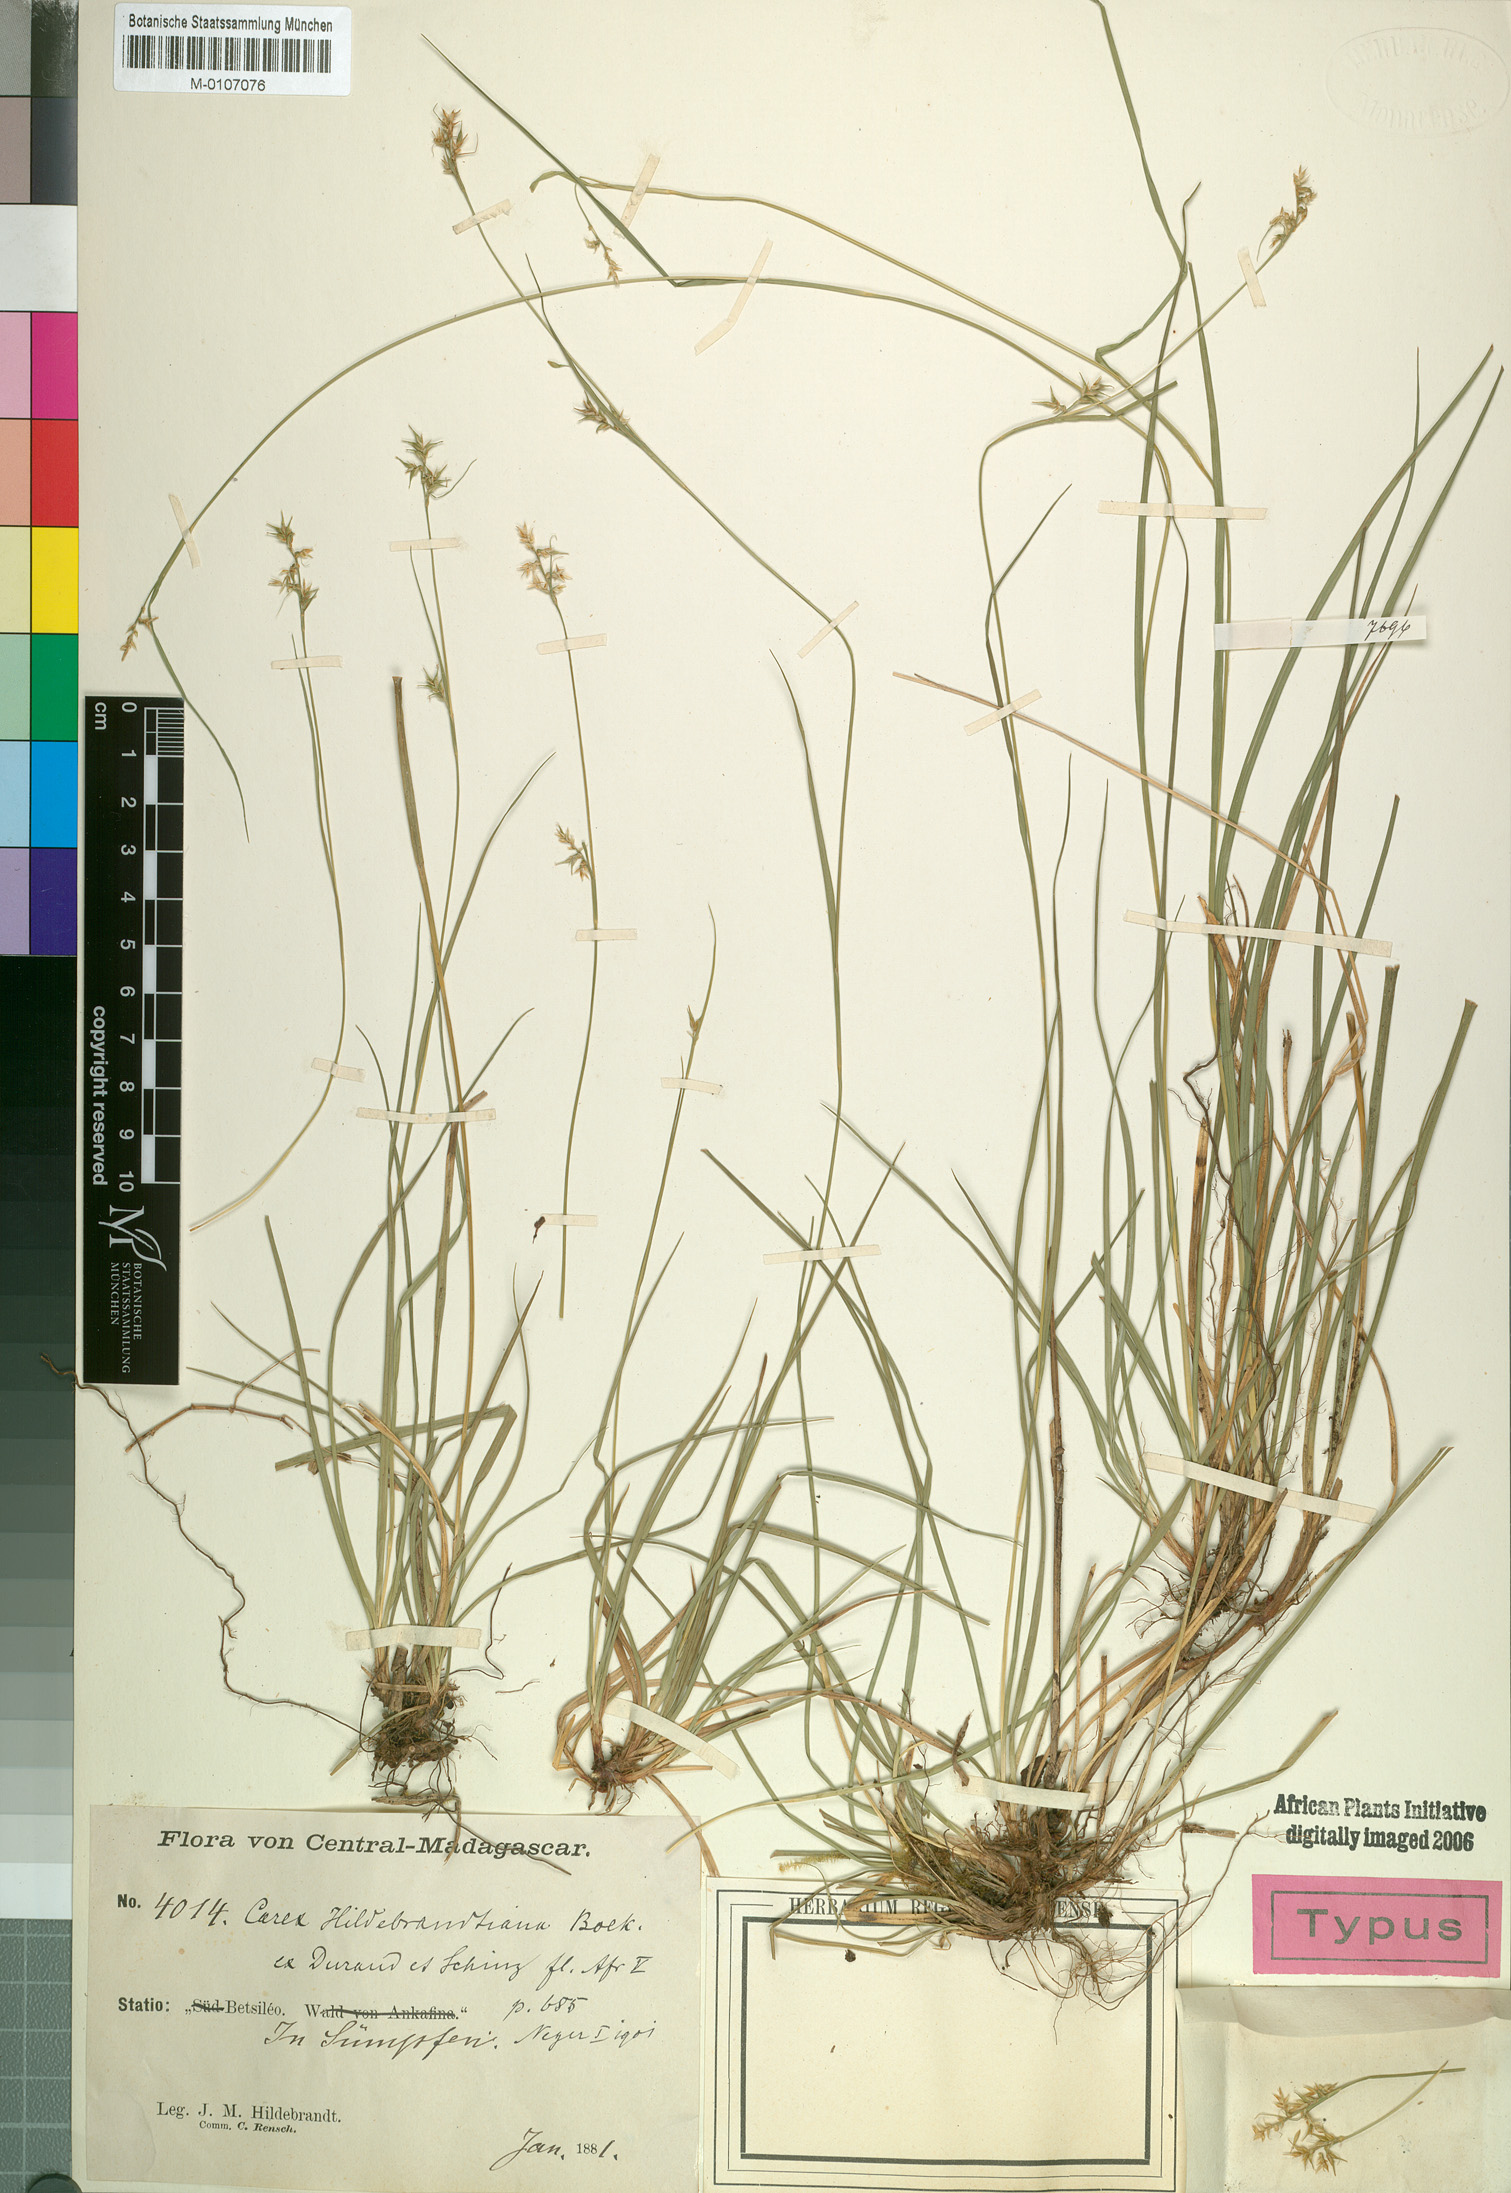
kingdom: Plantae
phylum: Tracheophyta
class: Liliopsida
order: Poales
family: Cyperaceae
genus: Carex
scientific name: Carex hildebrandtiana
